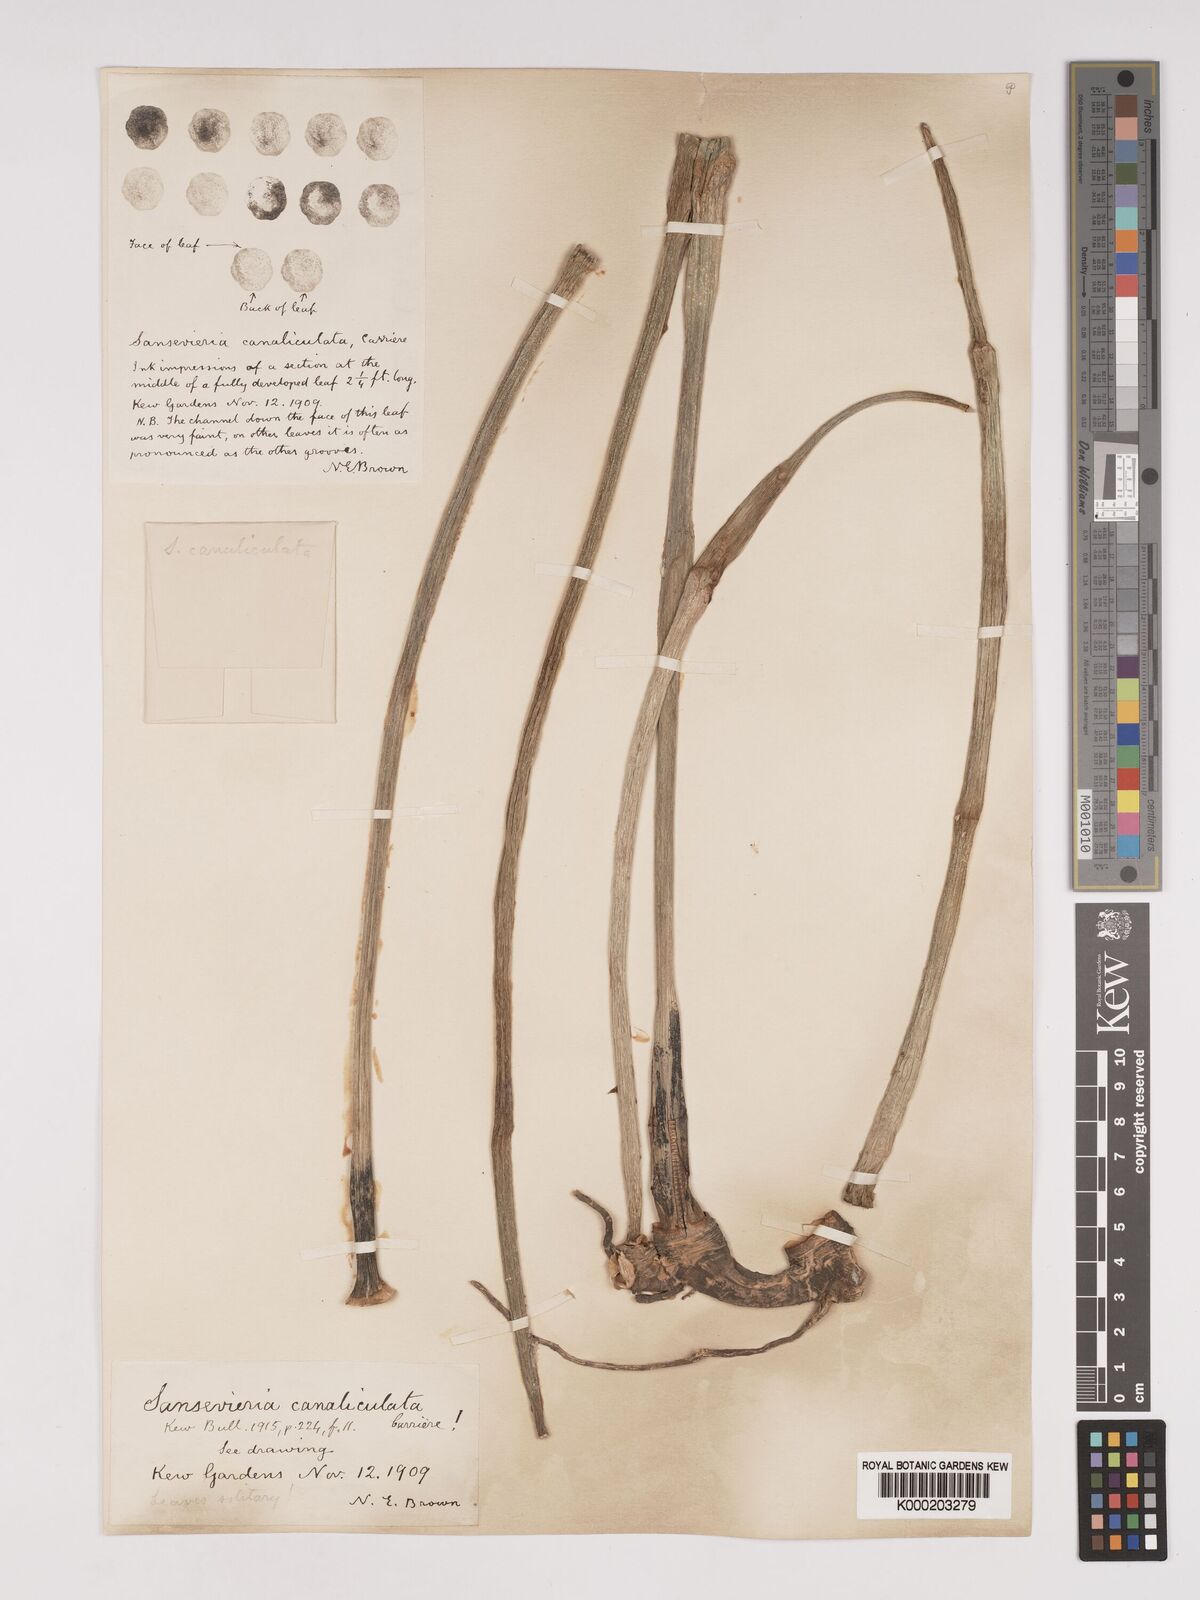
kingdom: Plantae
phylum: Tracheophyta
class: Liliopsida
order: Asparagales
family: Asparagaceae
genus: Dracaena
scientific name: Dracaena
